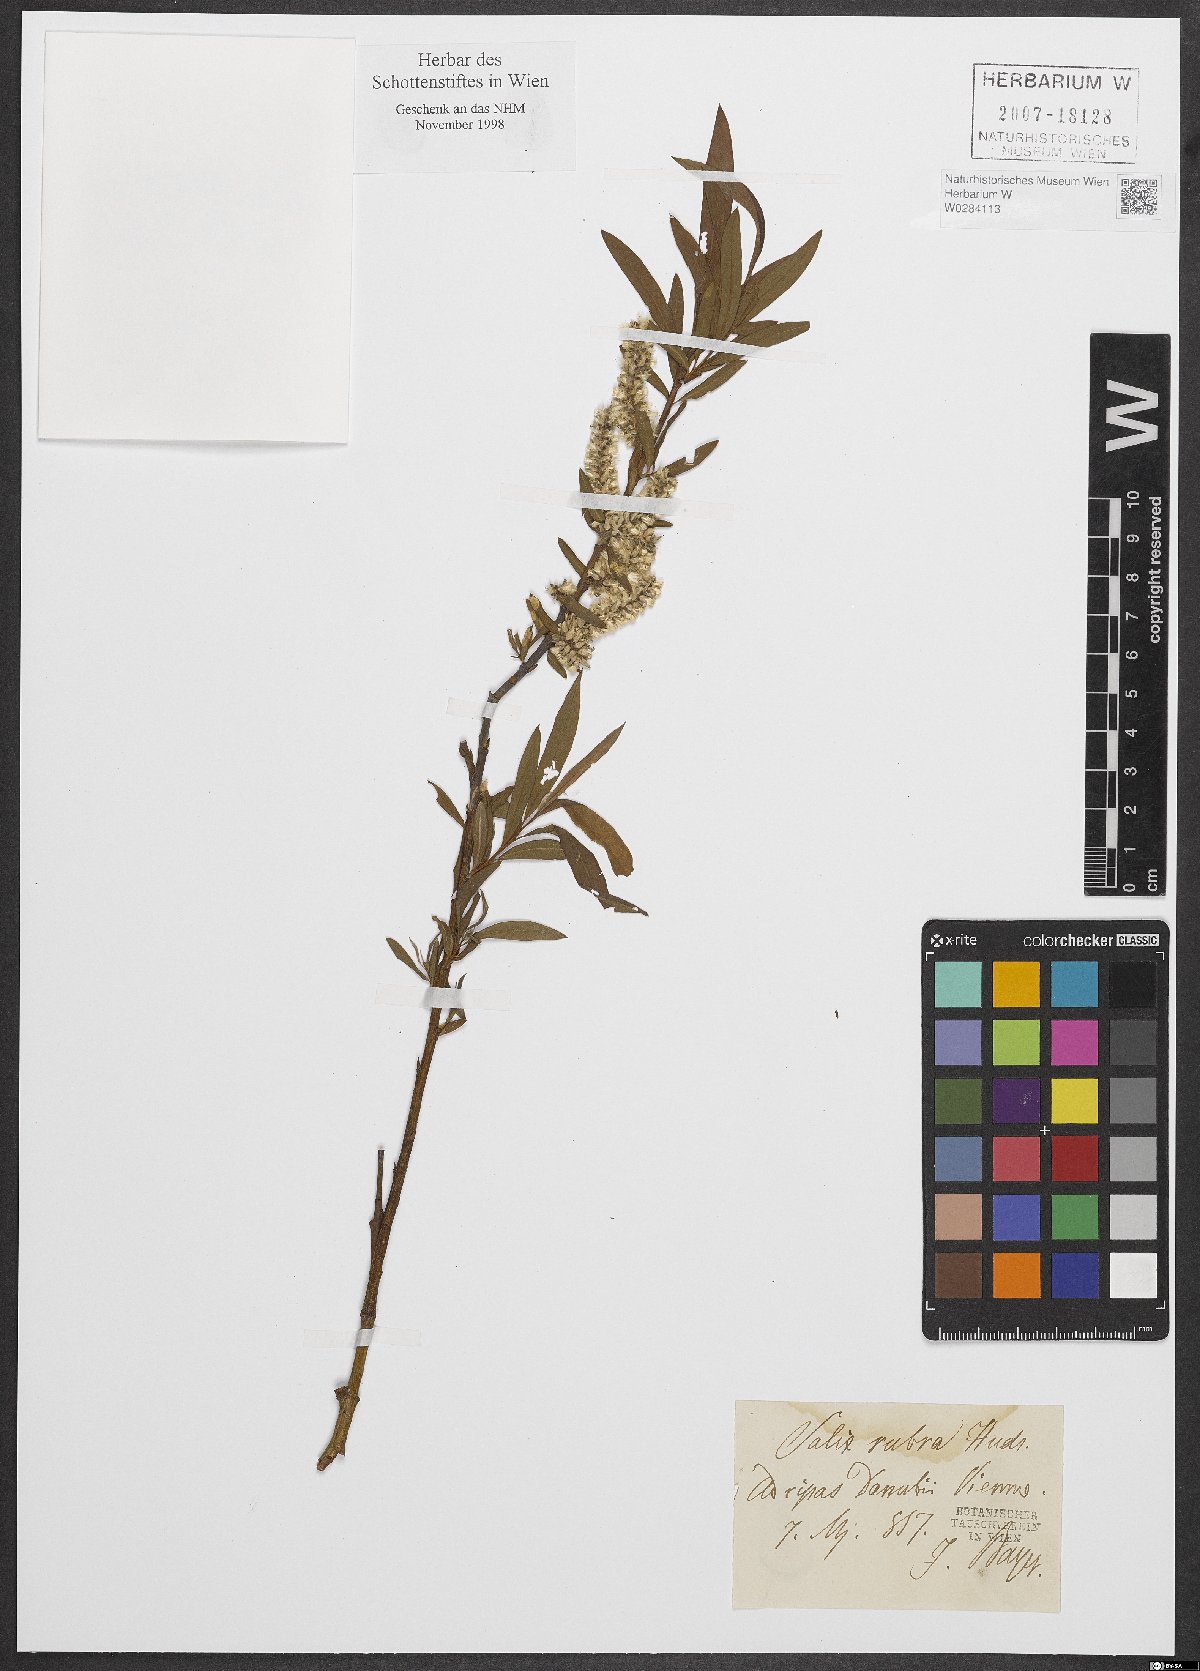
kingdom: Plantae
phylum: Tracheophyta
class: Magnoliopsida
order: Malpighiales
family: Salicaceae
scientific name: Salicaceae
